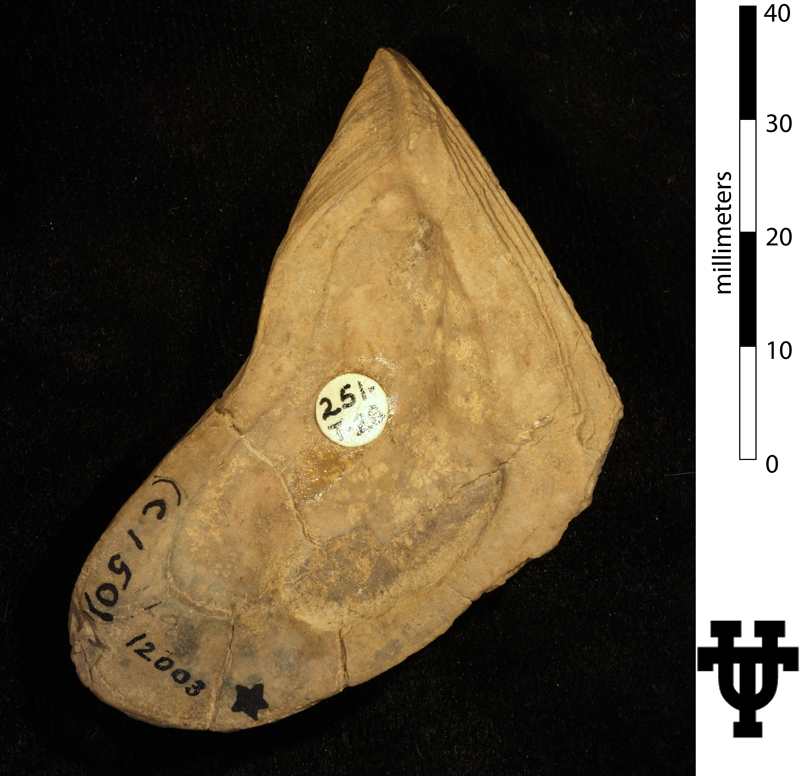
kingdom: Animalia
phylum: Mollusca
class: Bivalvia
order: Myalinida
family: Myalinidae
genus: Myalina
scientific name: Myalina petina
